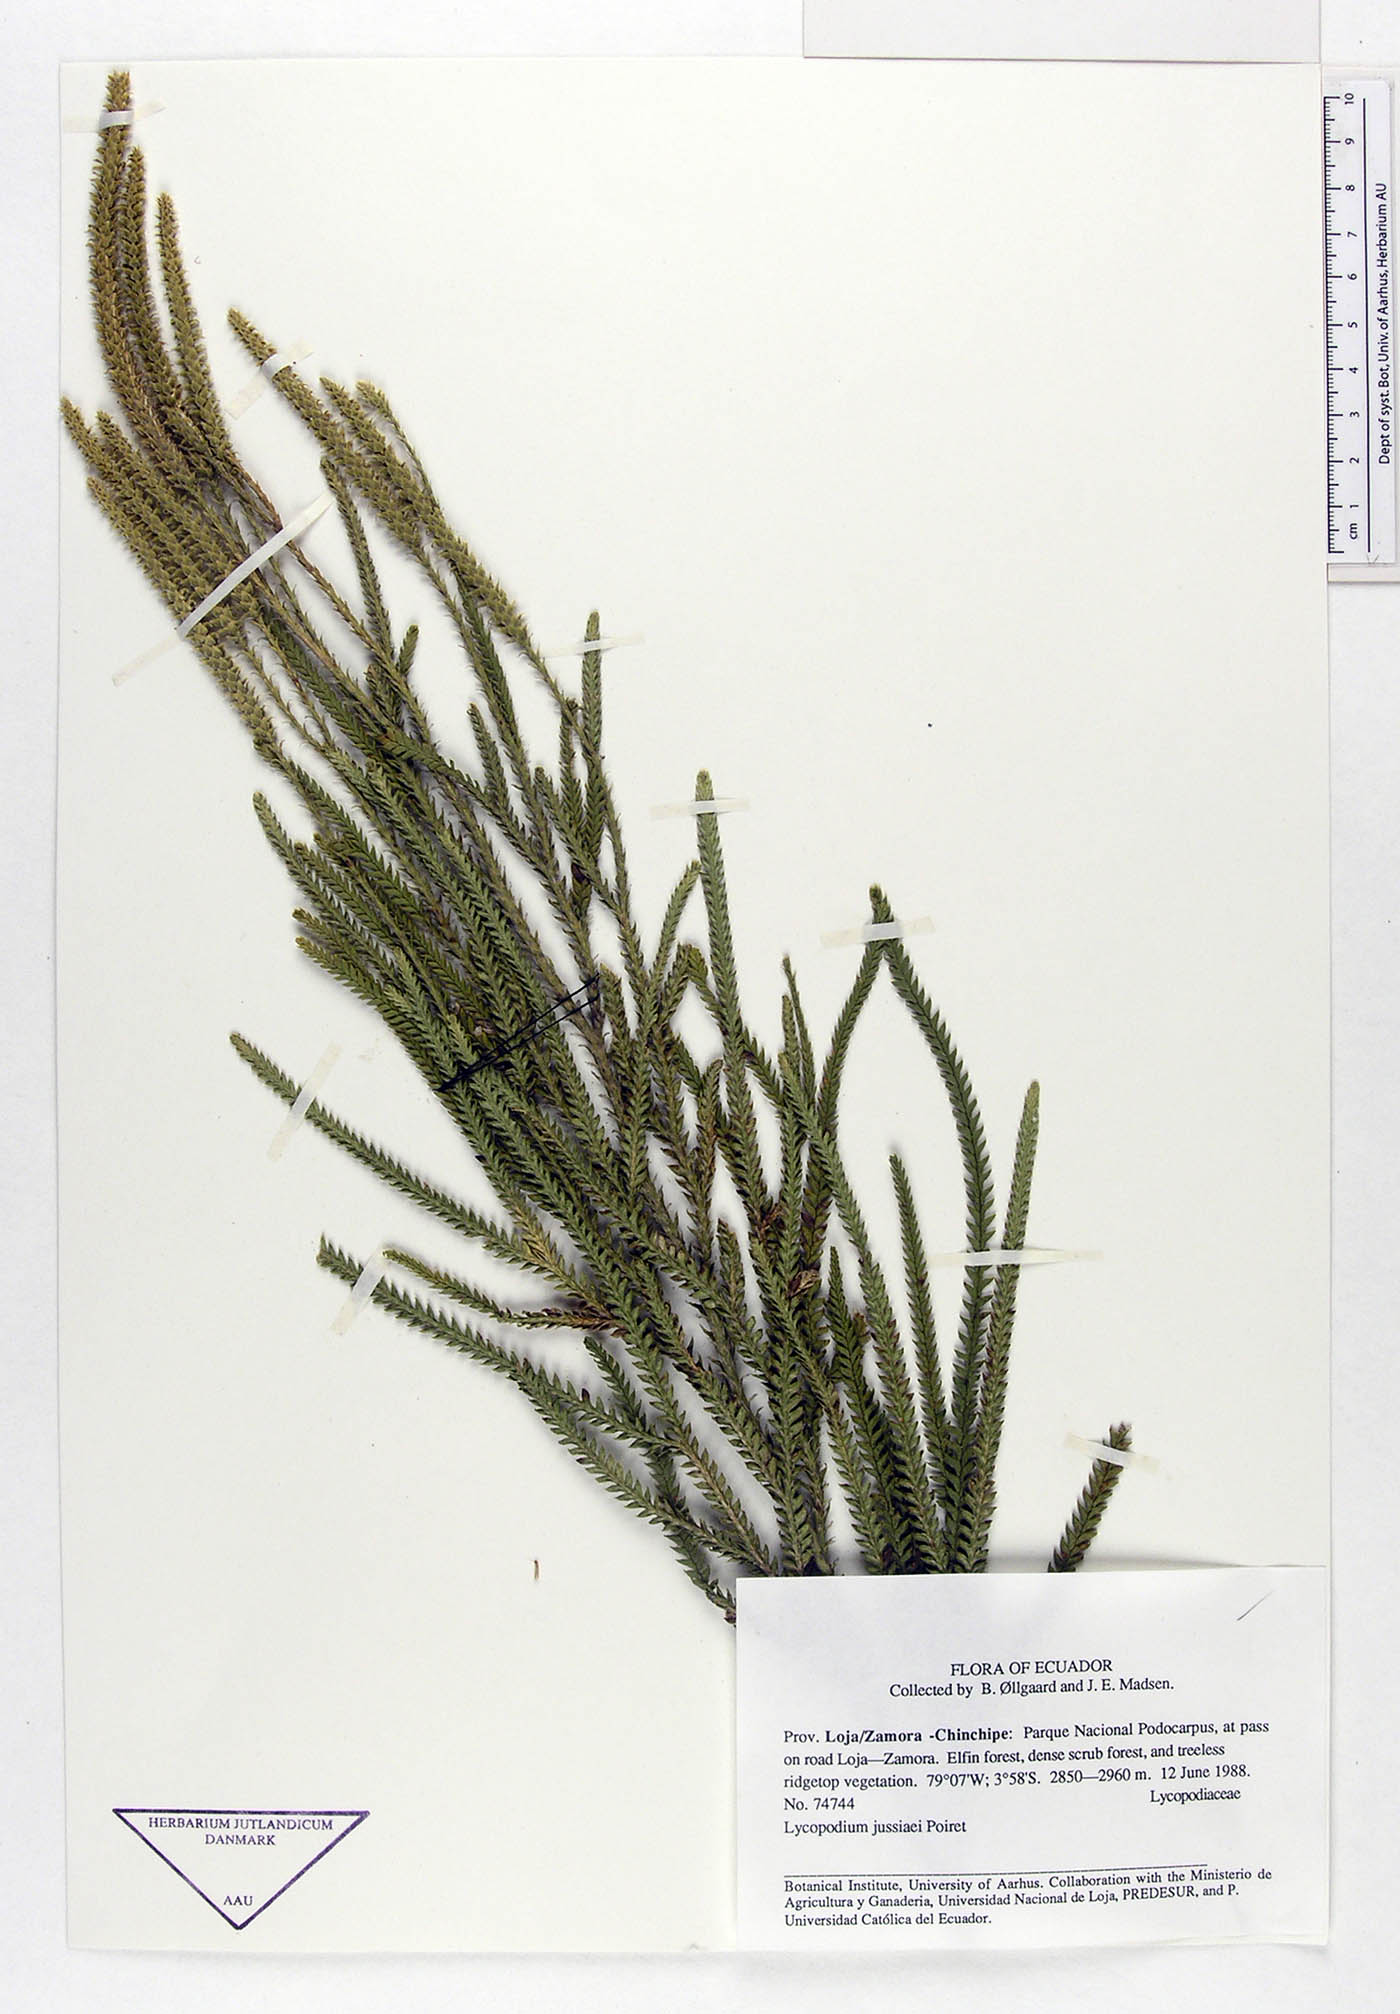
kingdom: Plantae
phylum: Tracheophyta
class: Lycopodiopsida
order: Lycopodiales
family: Lycopodiaceae
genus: Diphasium
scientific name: Diphasium jussiaei
